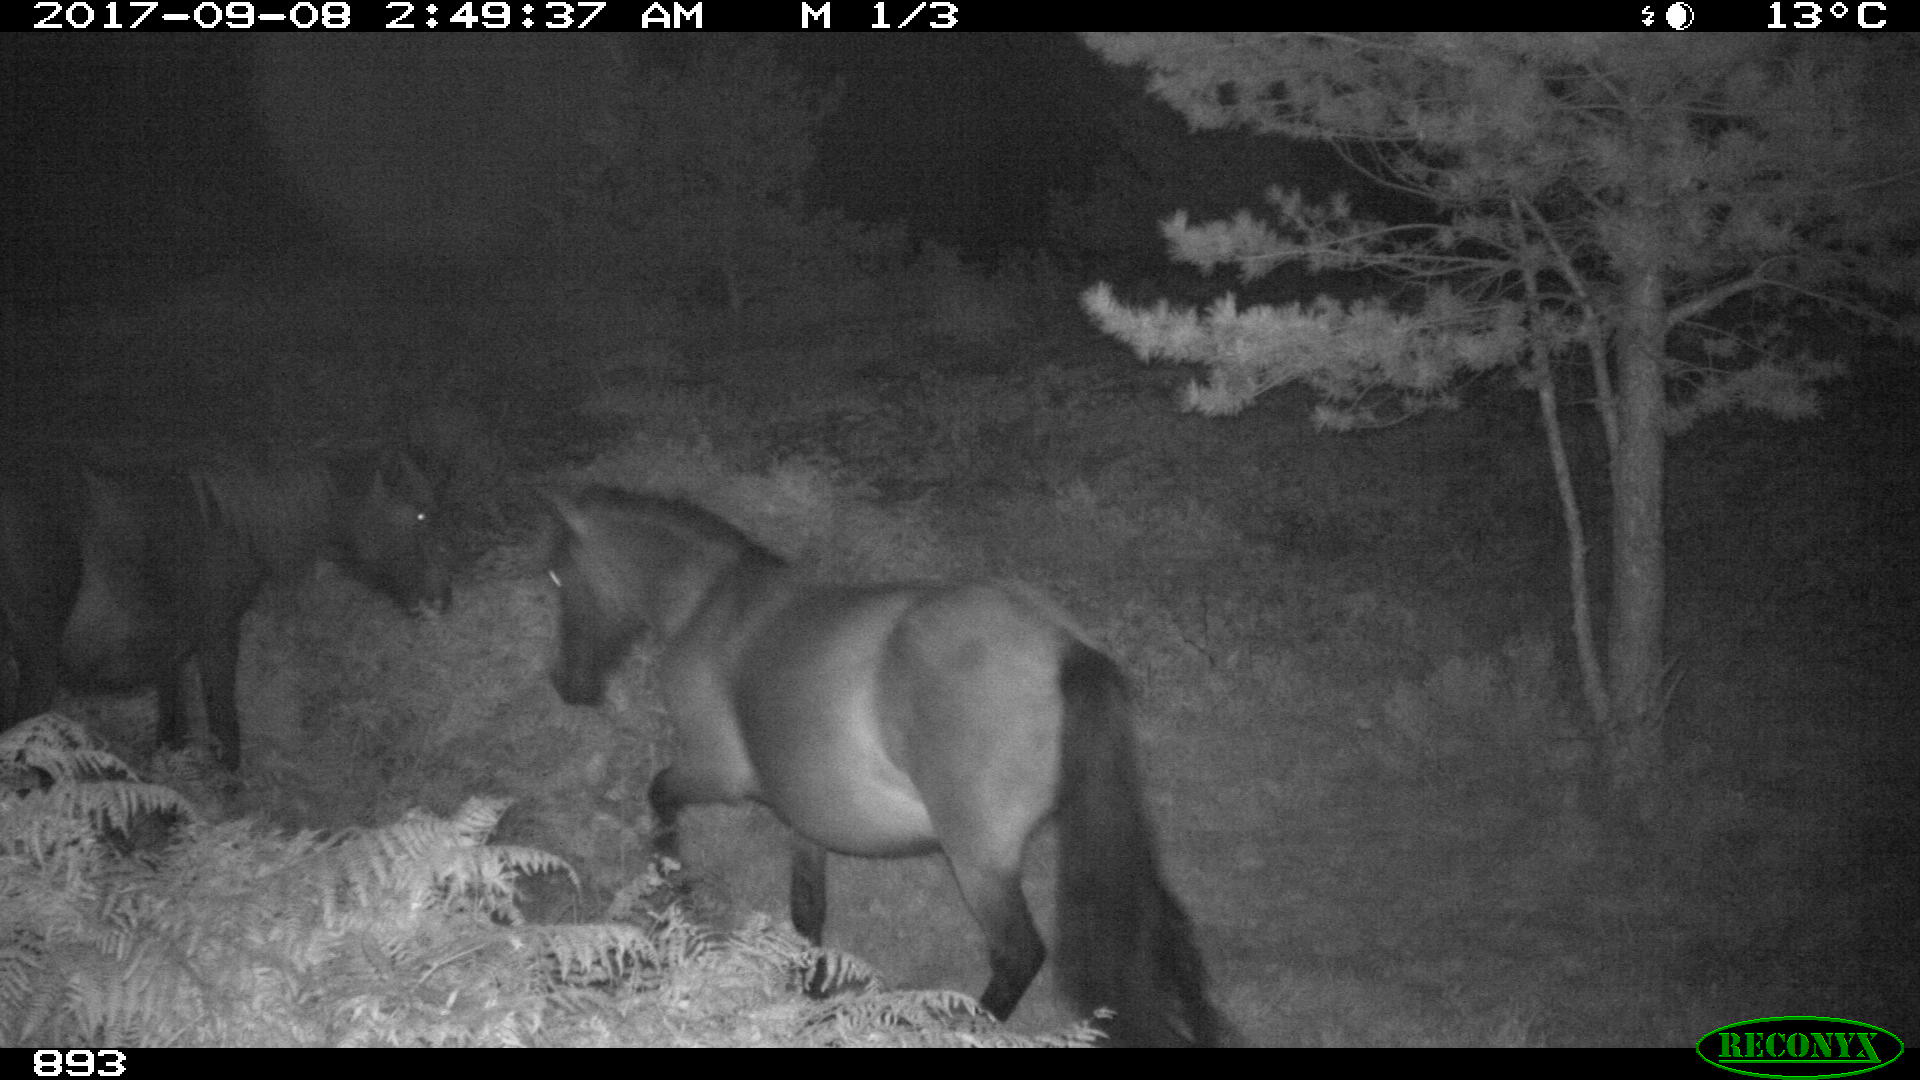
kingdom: Animalia
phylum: Chordata
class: Mammalia
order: Perissodactyla
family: Equidae
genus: Equus
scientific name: Equus caballus
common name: Horse
